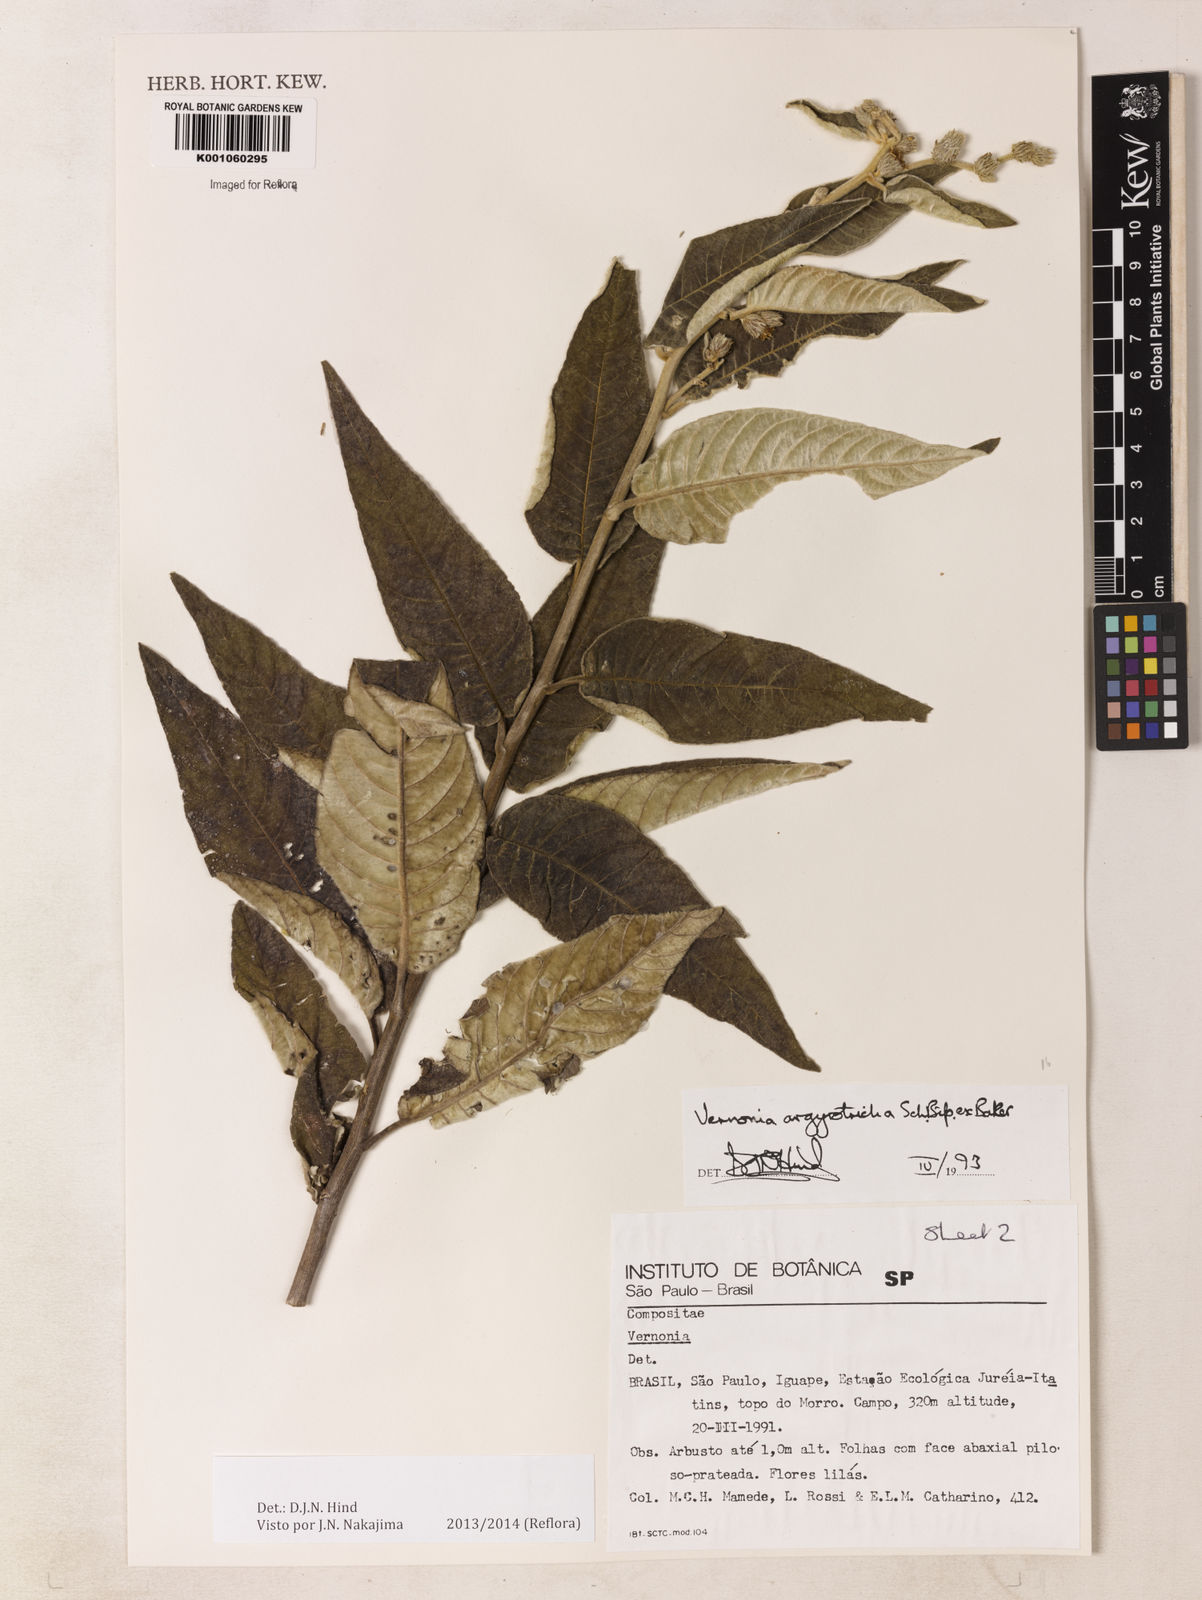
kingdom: Plantae
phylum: Tracheophyta
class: Magnoliopsida
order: Asterales
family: Asteraceae
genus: Lepidaploa
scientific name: Lepidaploa argyrotricha
